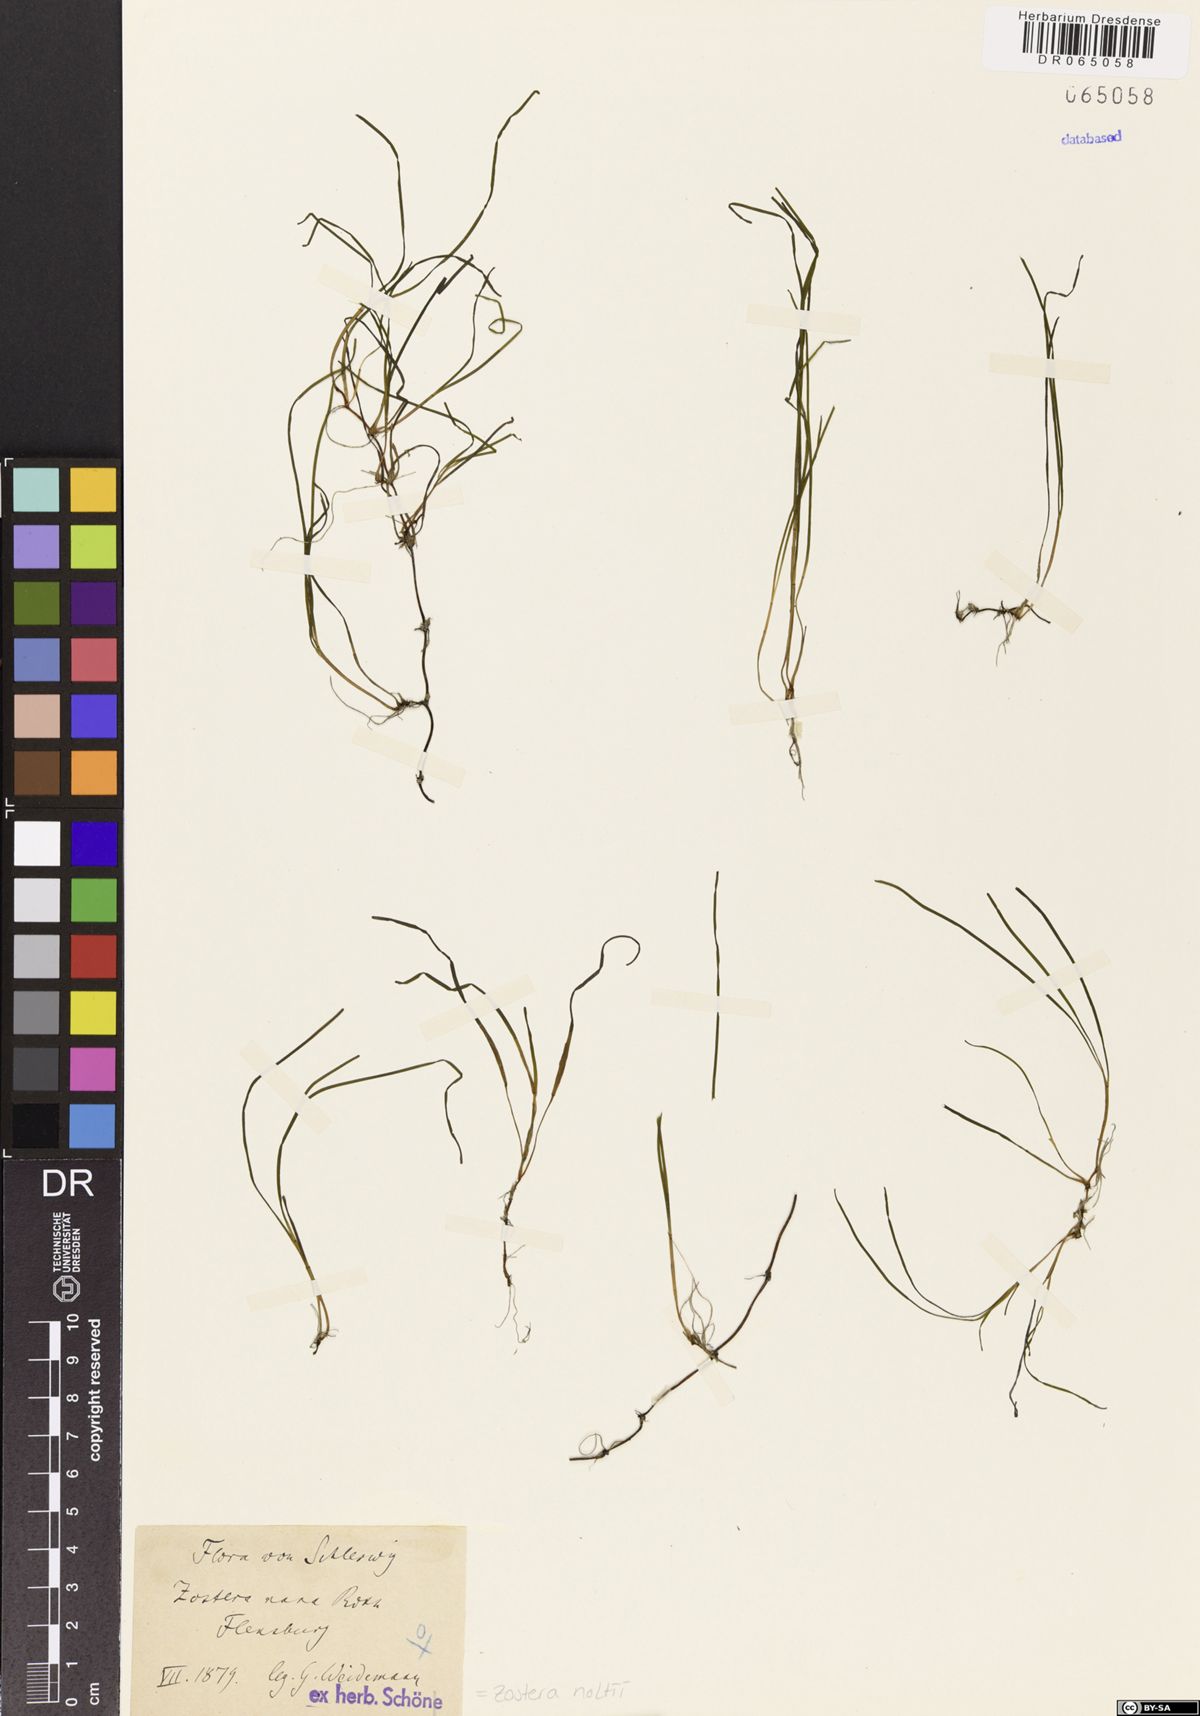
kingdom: Plantae
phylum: Tracheophyta
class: Liliopsida
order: Alismatales
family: Zosteraceae
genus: Zostera
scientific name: Zostera noltii
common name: Dwarf eelgrass
